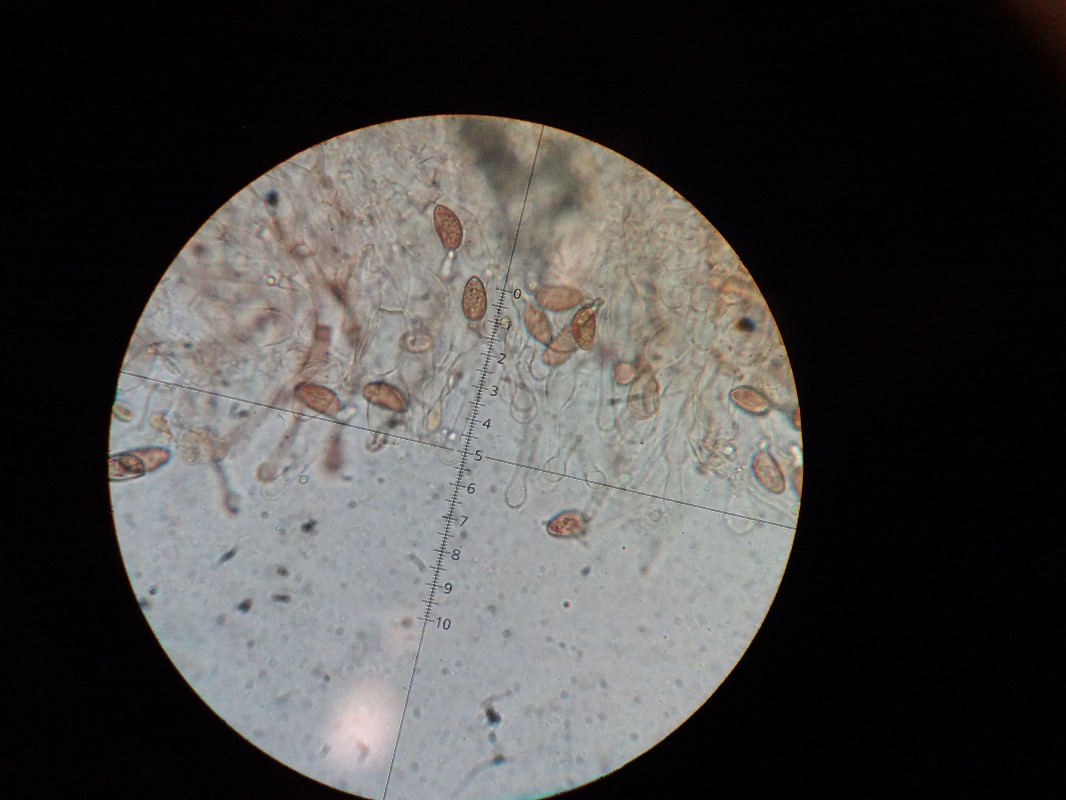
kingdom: Fungi
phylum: Basidiomycota
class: Agaricomycetes
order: Agaricales
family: Hymenogastraceae
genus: Galerina
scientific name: Galerina subclavata
